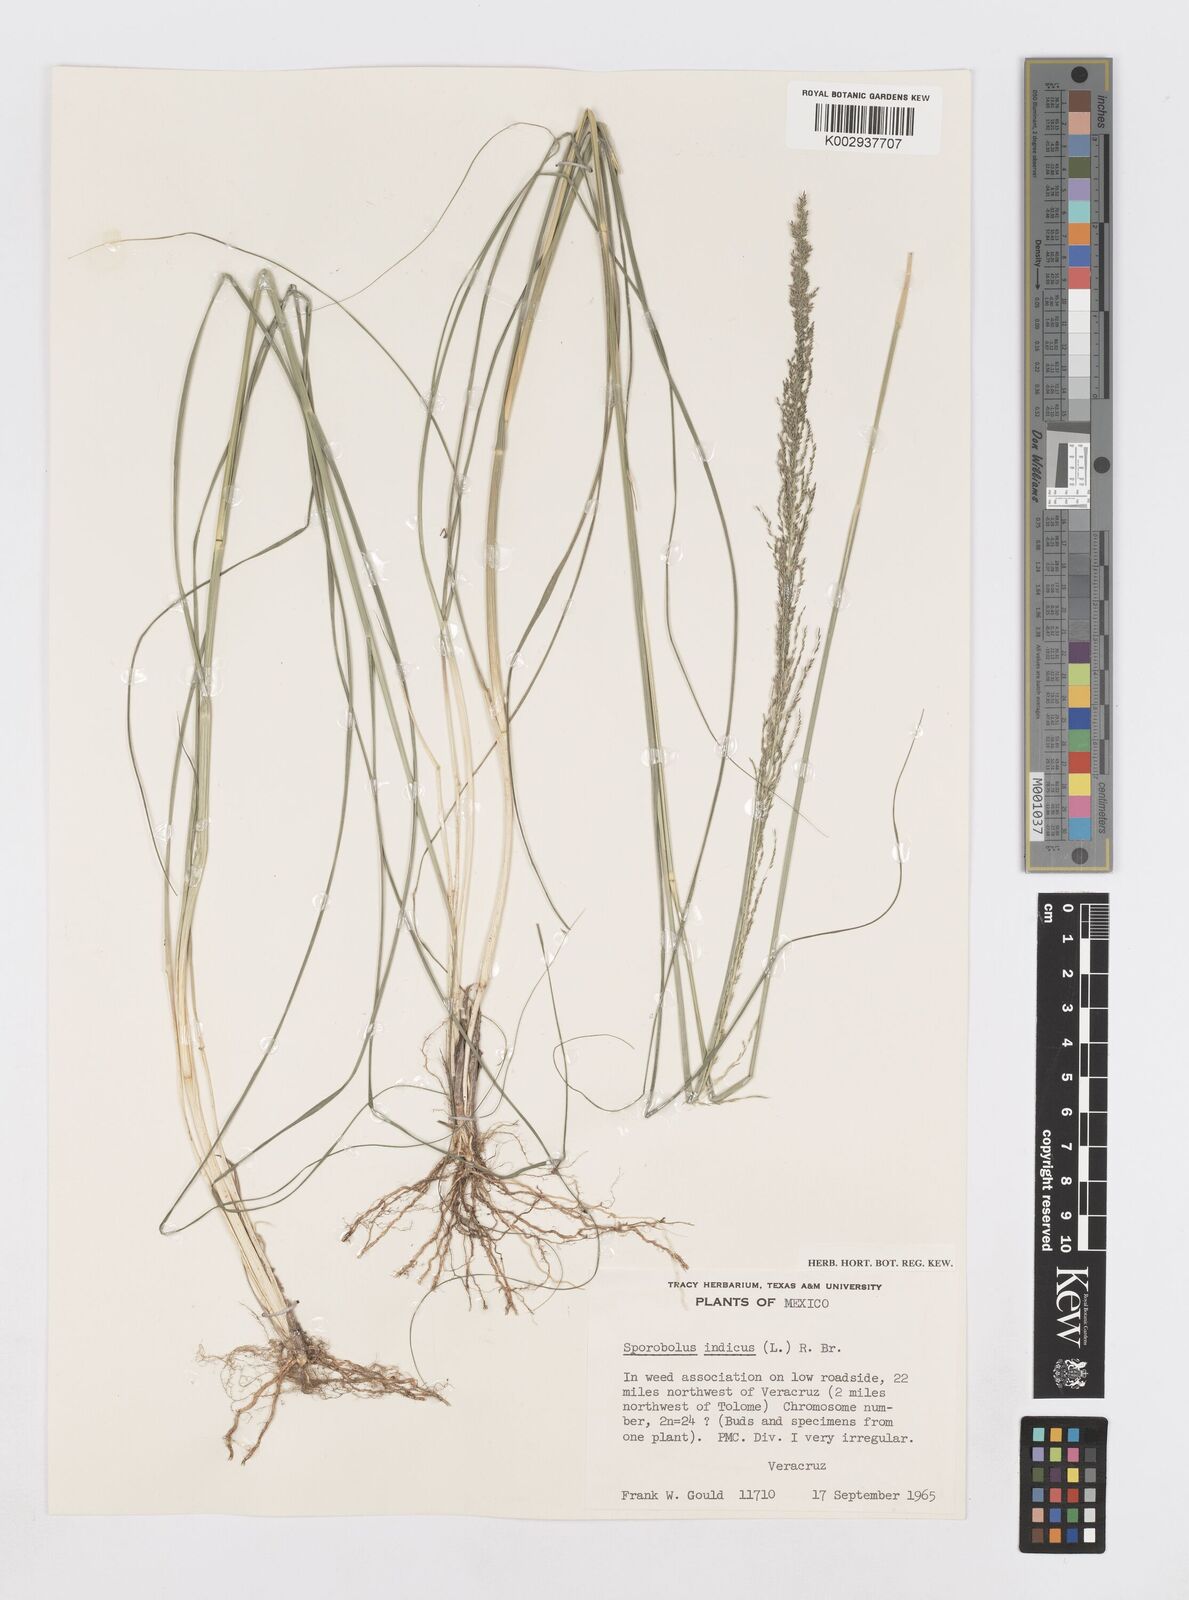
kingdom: Plantae
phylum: Tracheophyta
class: Liliopsida
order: Poales
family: Poaceae
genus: Sporobolus
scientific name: Sporobolus junceus
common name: Lizard grass
